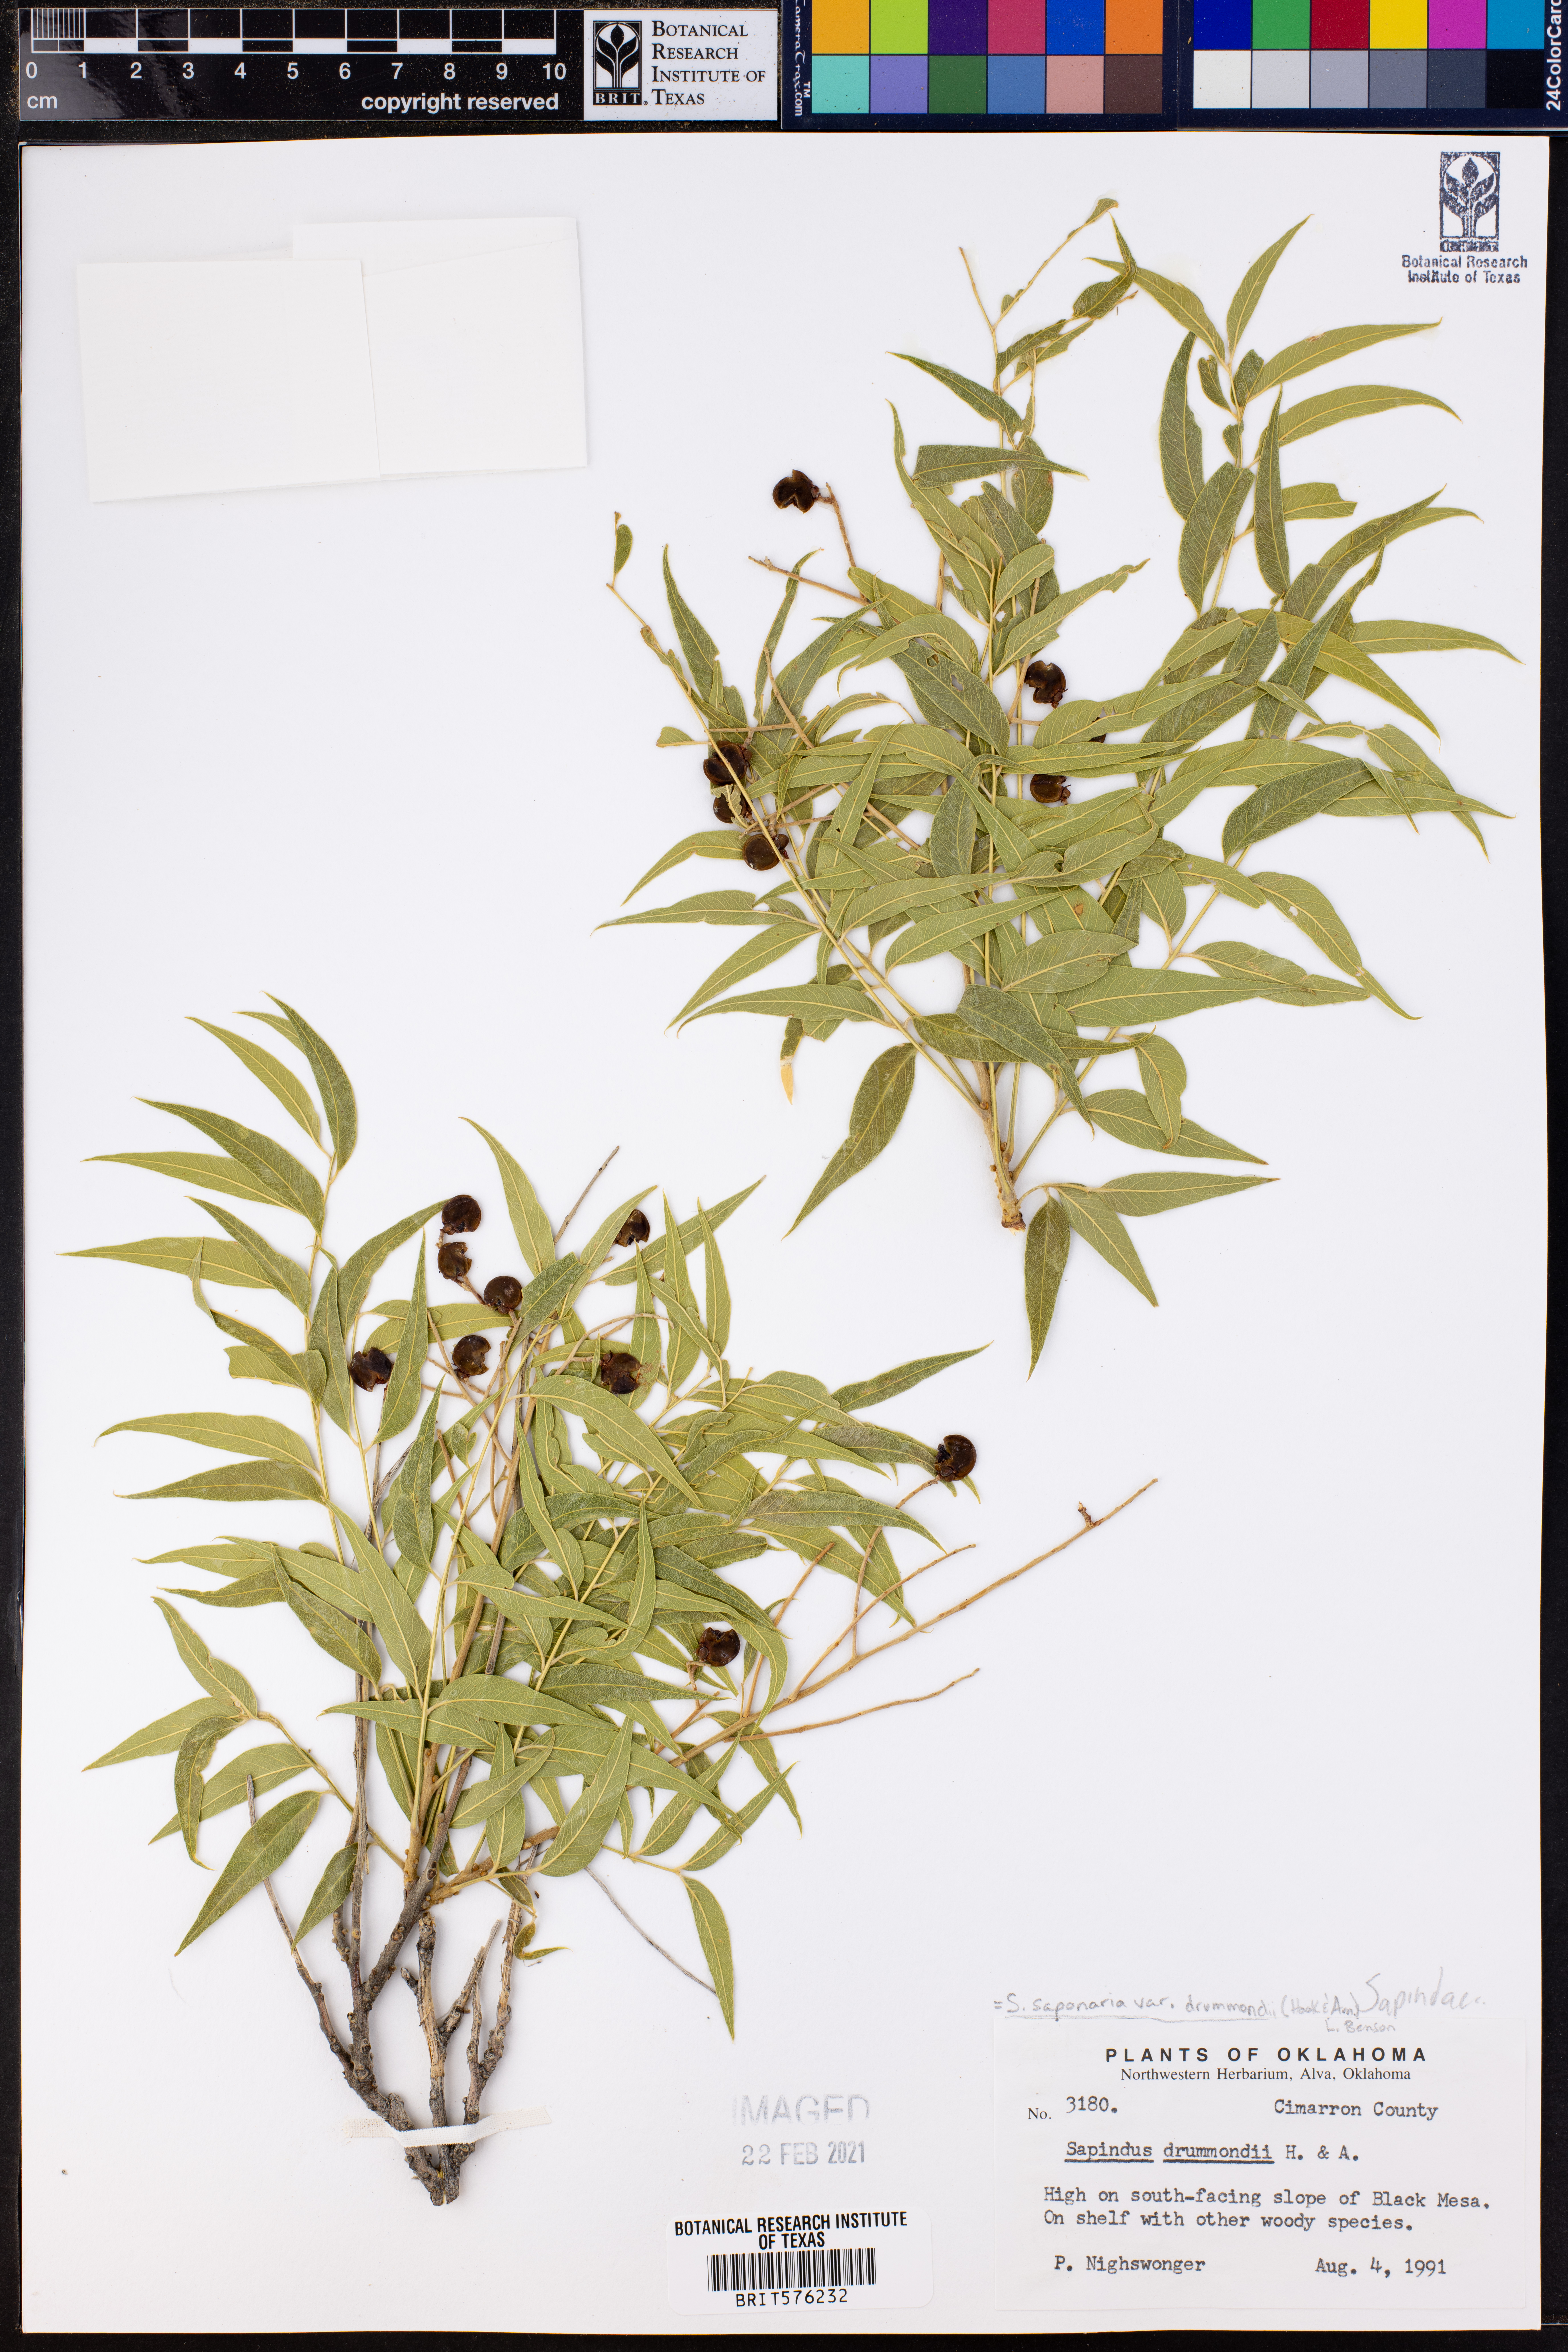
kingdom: Plantae
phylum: Tracheophyta
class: Magnoliopsida
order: Sapindales
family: Sapindaceae
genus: Sapindus
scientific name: Sapindus drummondii
